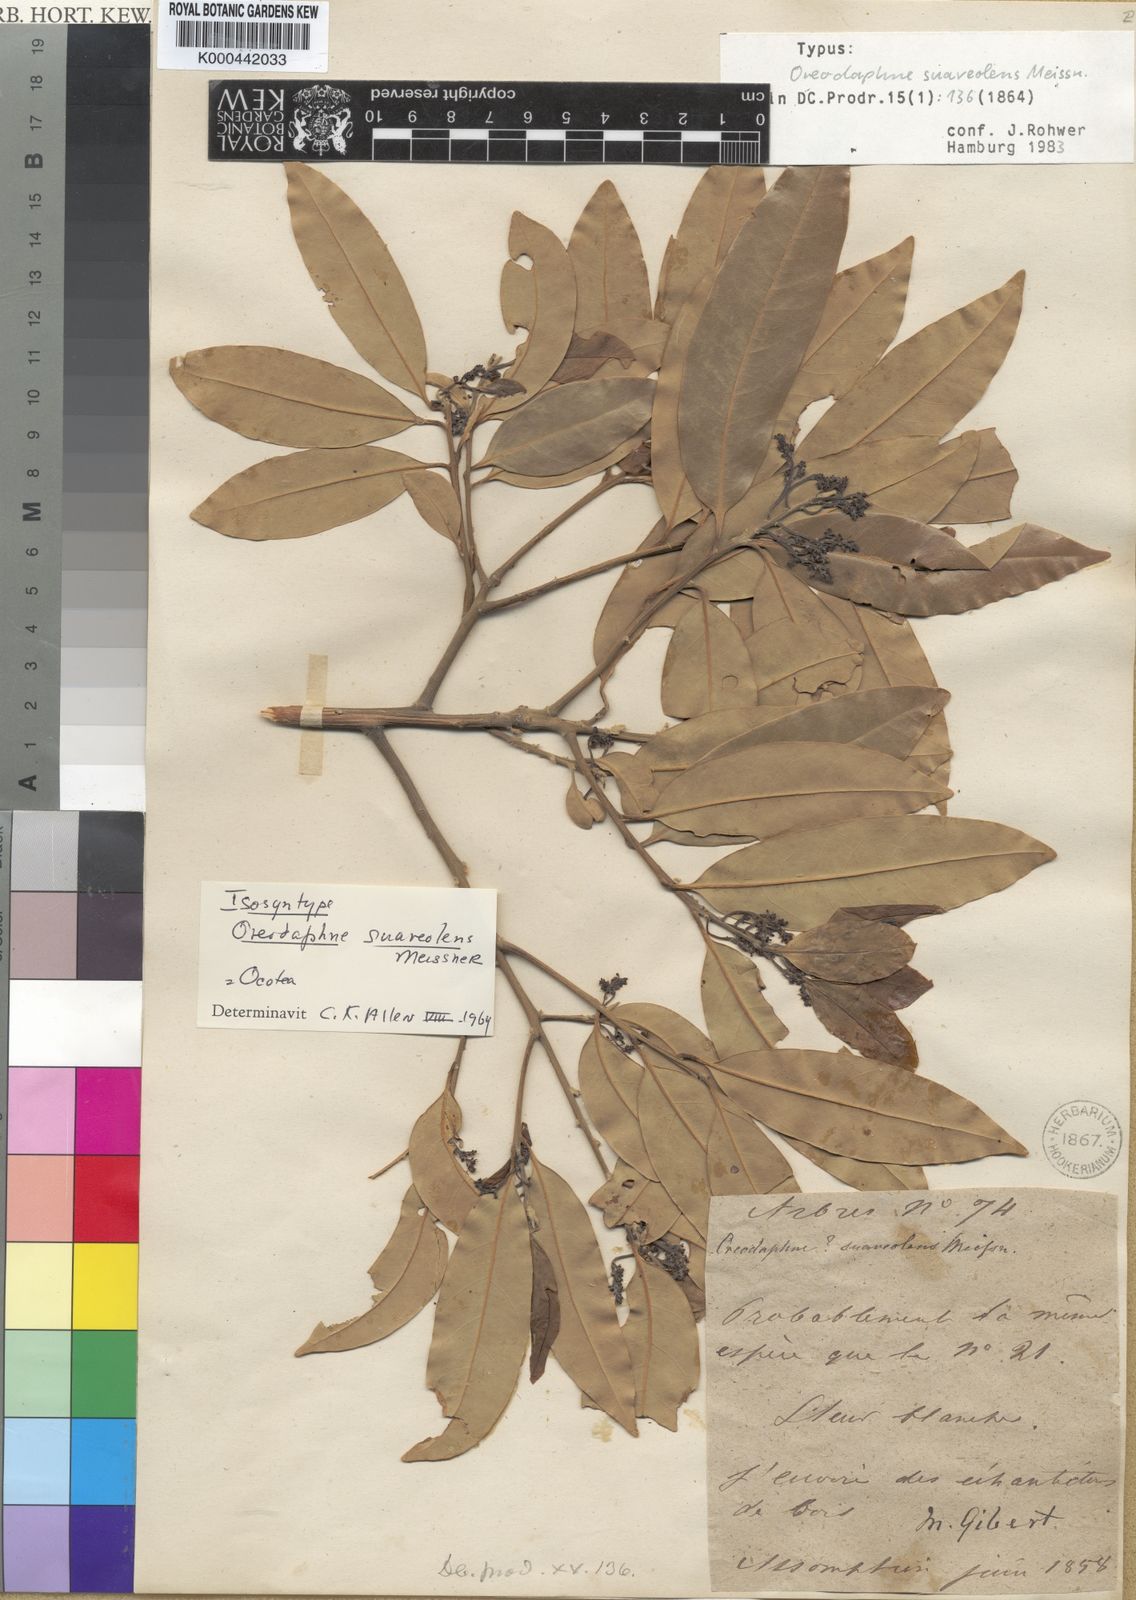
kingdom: Plantae
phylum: Tracheophyta
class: Magnoliopsida
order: Laurales
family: Lauraceae
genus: Ocotea
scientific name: Ocotea diospyrifolia
